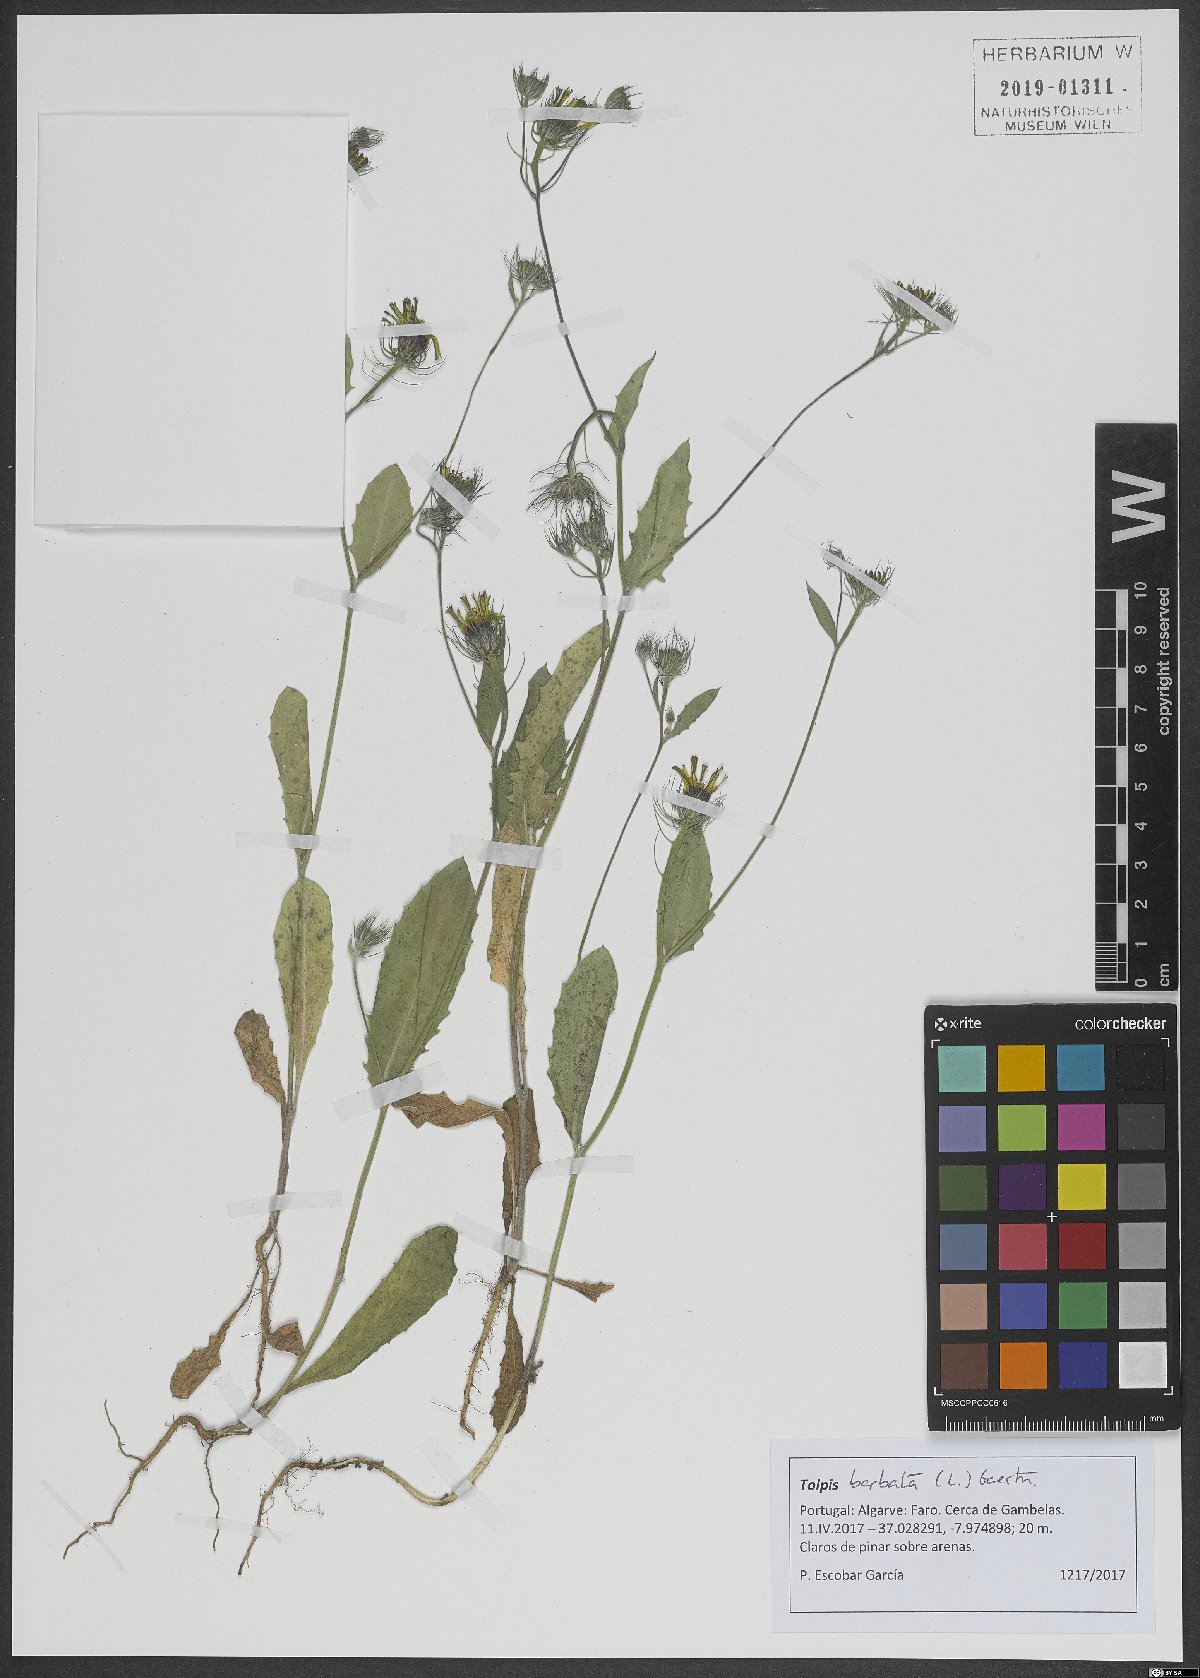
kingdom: Plantae
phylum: Tracheophyta
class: Magnoliopsida
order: Asterales
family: Asteraceae
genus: Tolpis
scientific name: Tolpis barbata
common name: Yellow hawkweed
